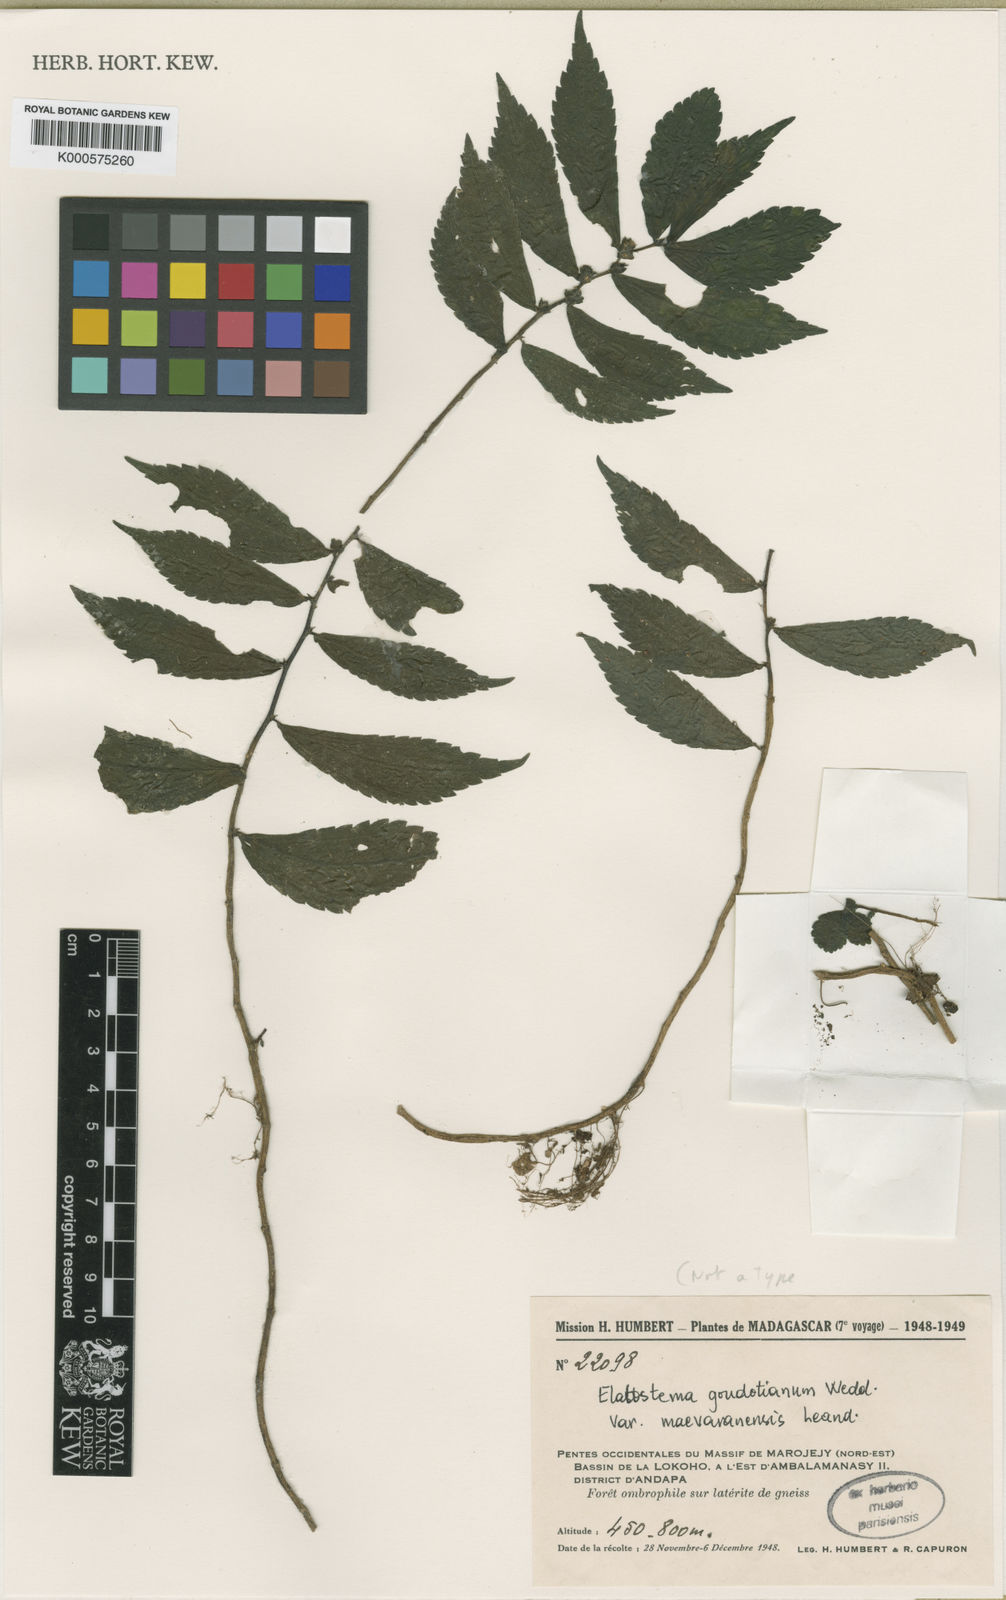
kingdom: Plantae
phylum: Tracheophyta
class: Magnoliopsida
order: Rosales
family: Urticaceae
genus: Elatostema
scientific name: Elatostema goudotianum
